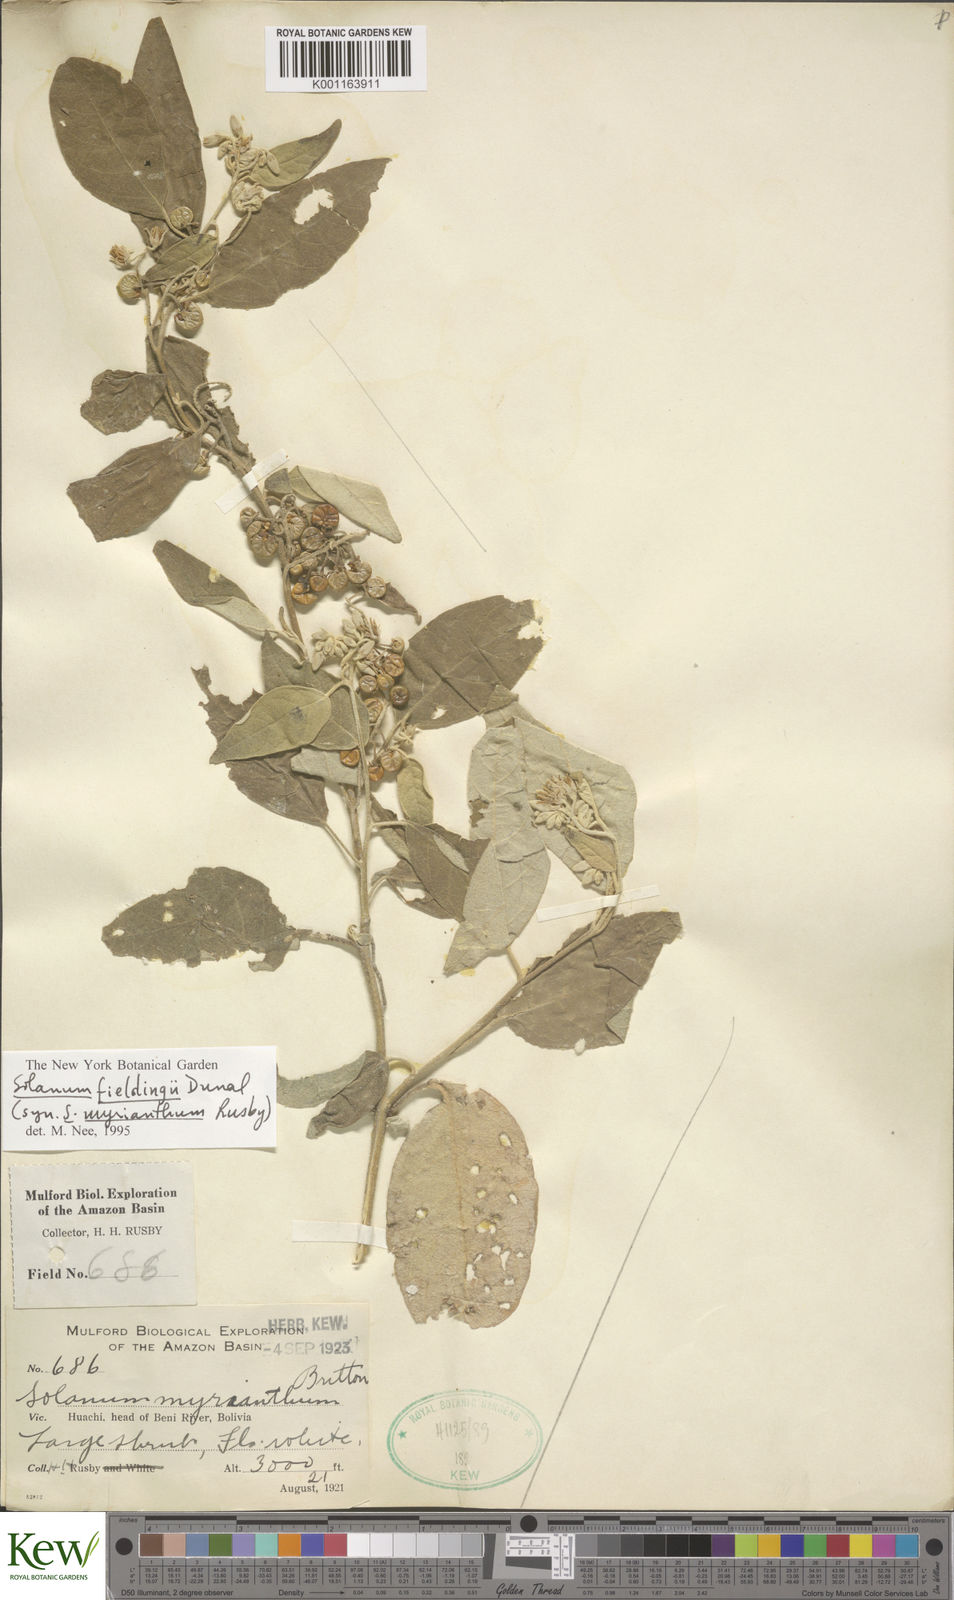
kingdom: Plantae
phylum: Tracheophyta
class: Magnoliopsida
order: Solanales
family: Solanaceae
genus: Solanum
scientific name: Solanum acutilobum
